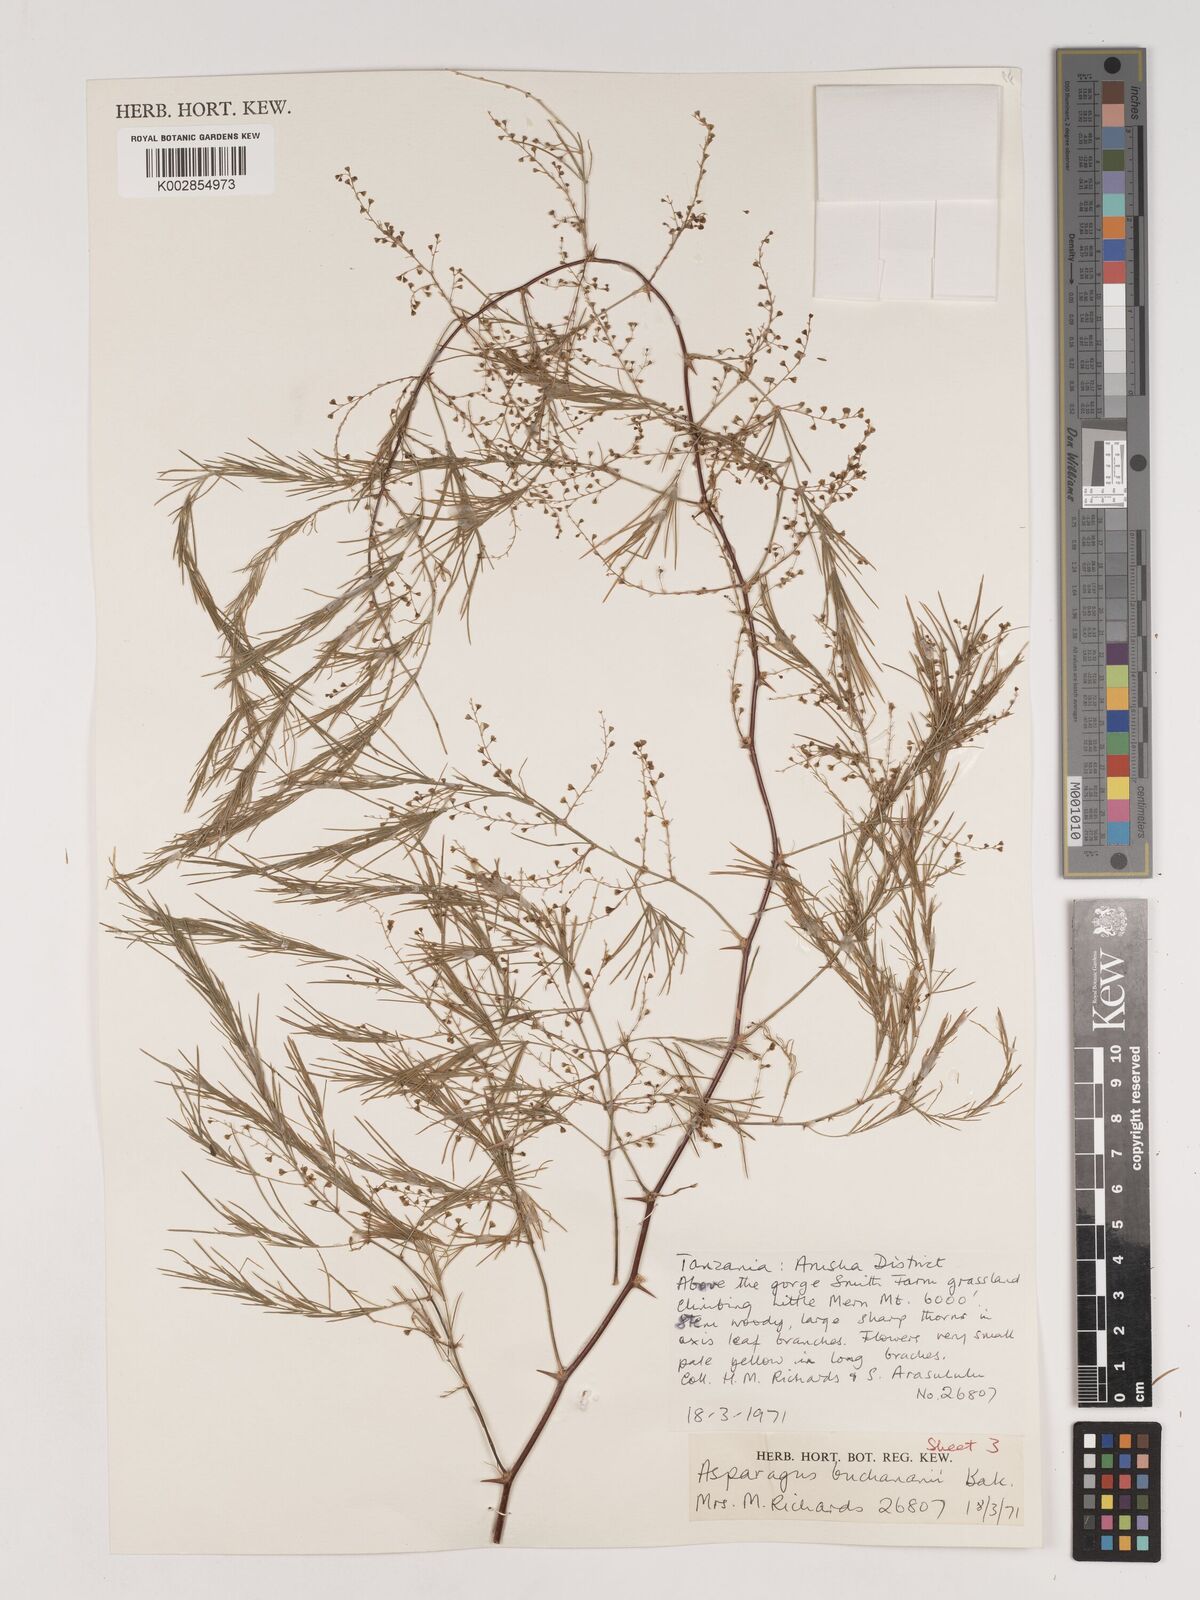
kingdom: Plantae
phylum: Tracheophyta
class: Liliopsida
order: Asparagales
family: Asparagaceae
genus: Asparagus
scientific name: Asparagus buchananii
